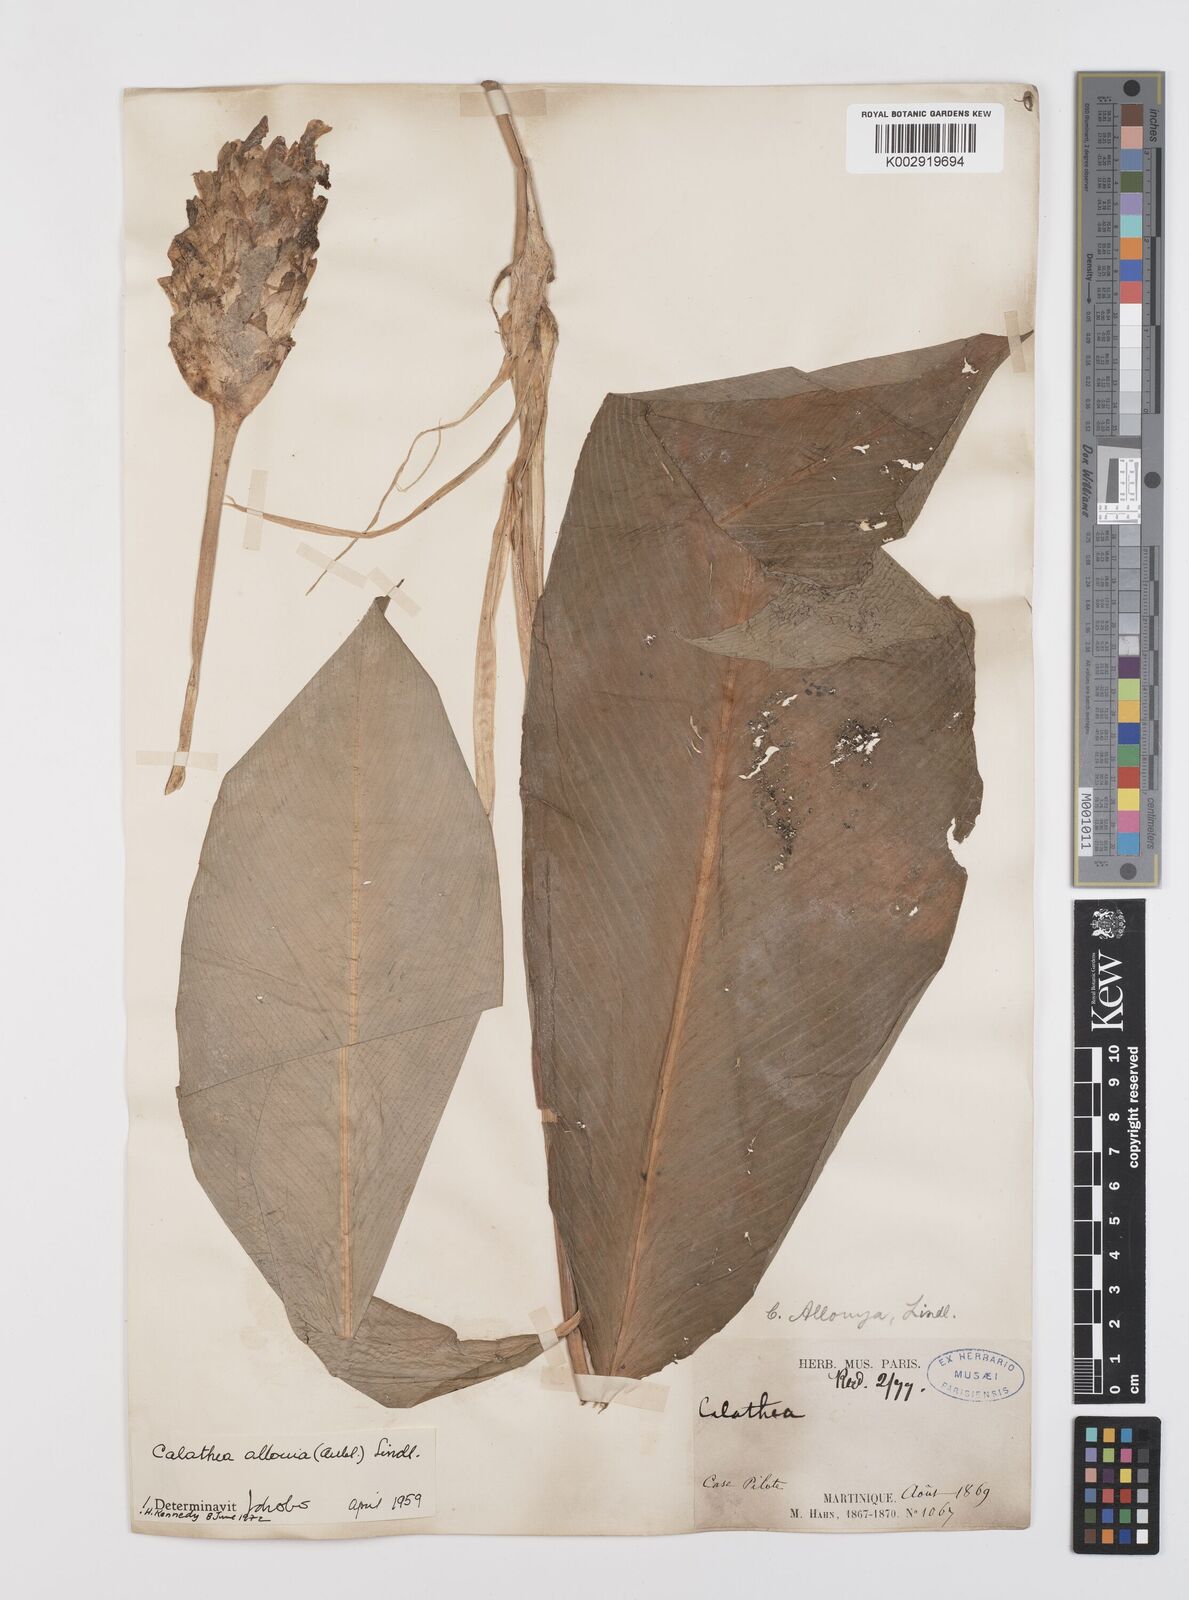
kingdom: Plantae
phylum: Tracheophyta
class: Liliopsida
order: Zingiberales
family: Marantaceae
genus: Goeppertia
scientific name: Goeppertia allouia
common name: Sweet corn-tuber
